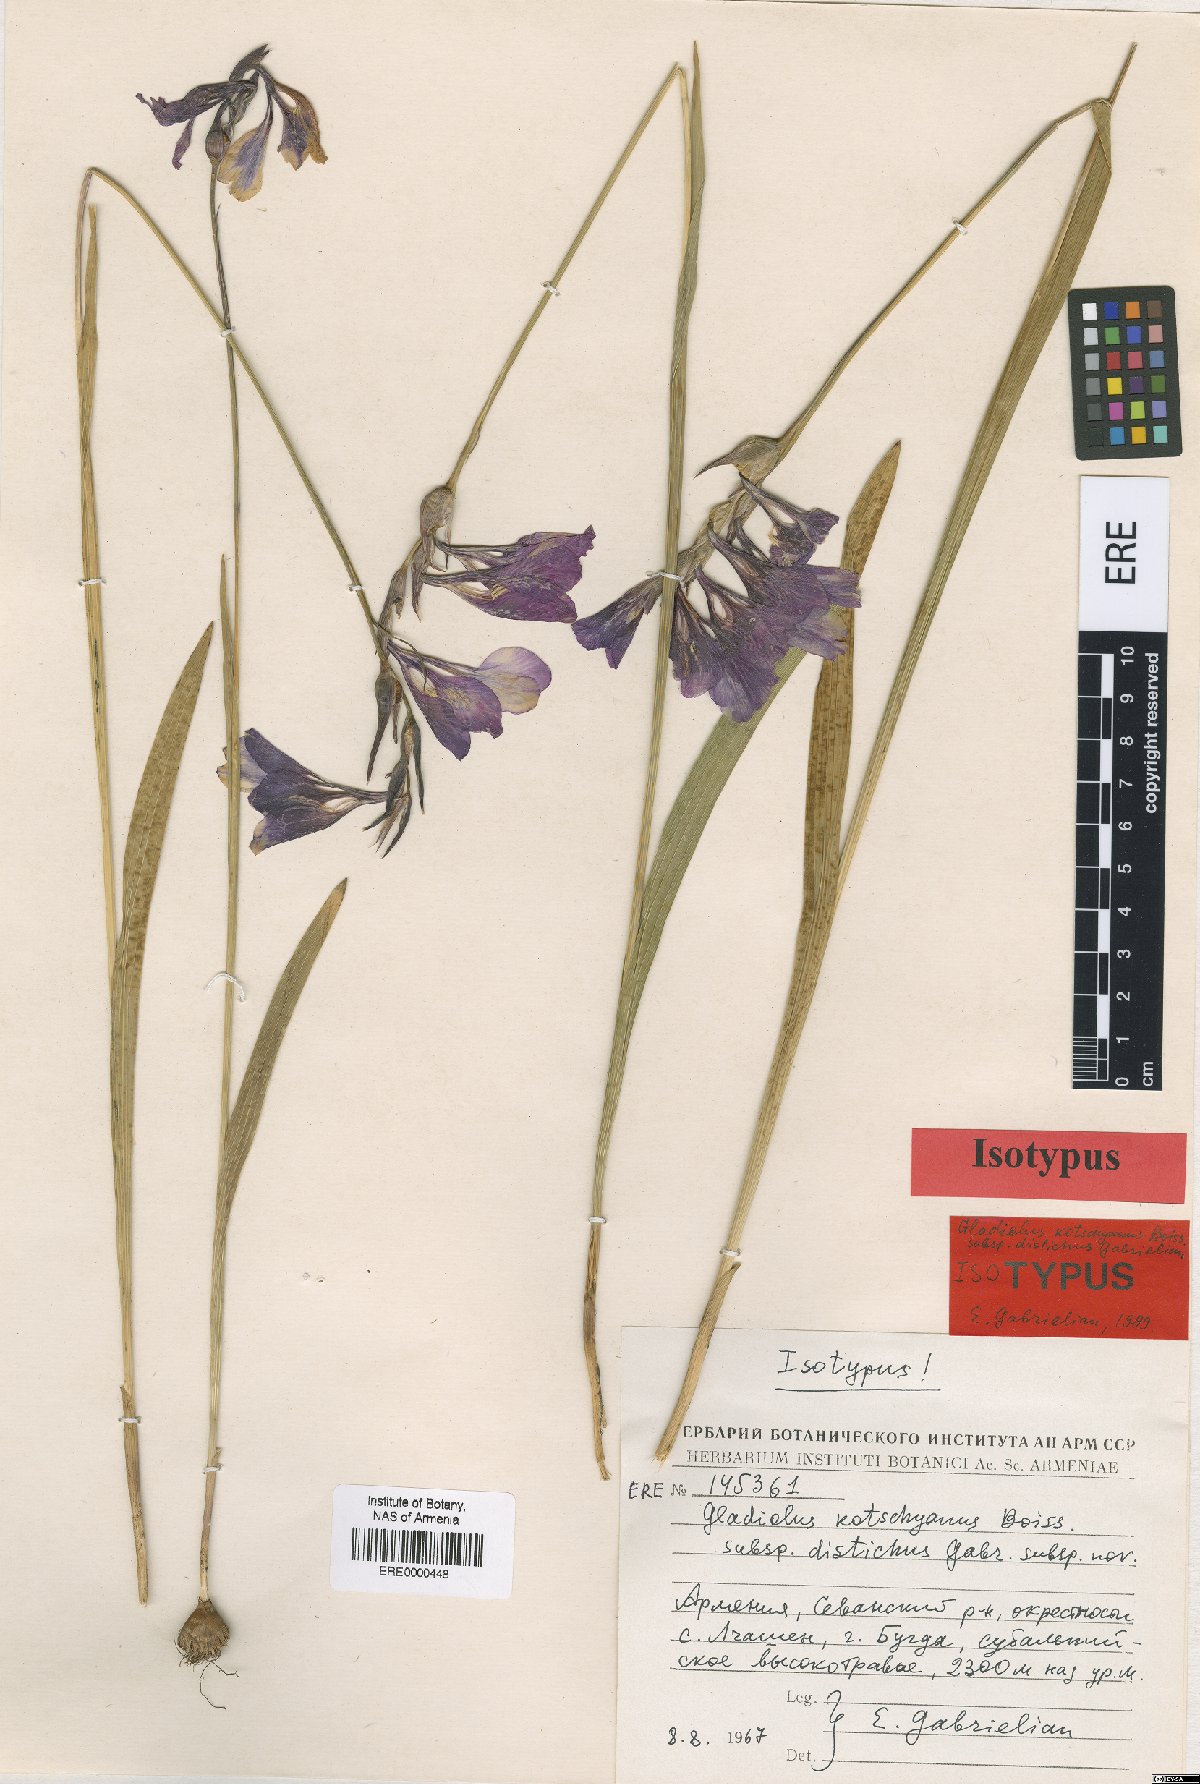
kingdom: Plantae
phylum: Tracheophyta
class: Liliopsida
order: Asparagales
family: Iridaceae
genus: Gladiolus
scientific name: Gladiolus kotschyanus
